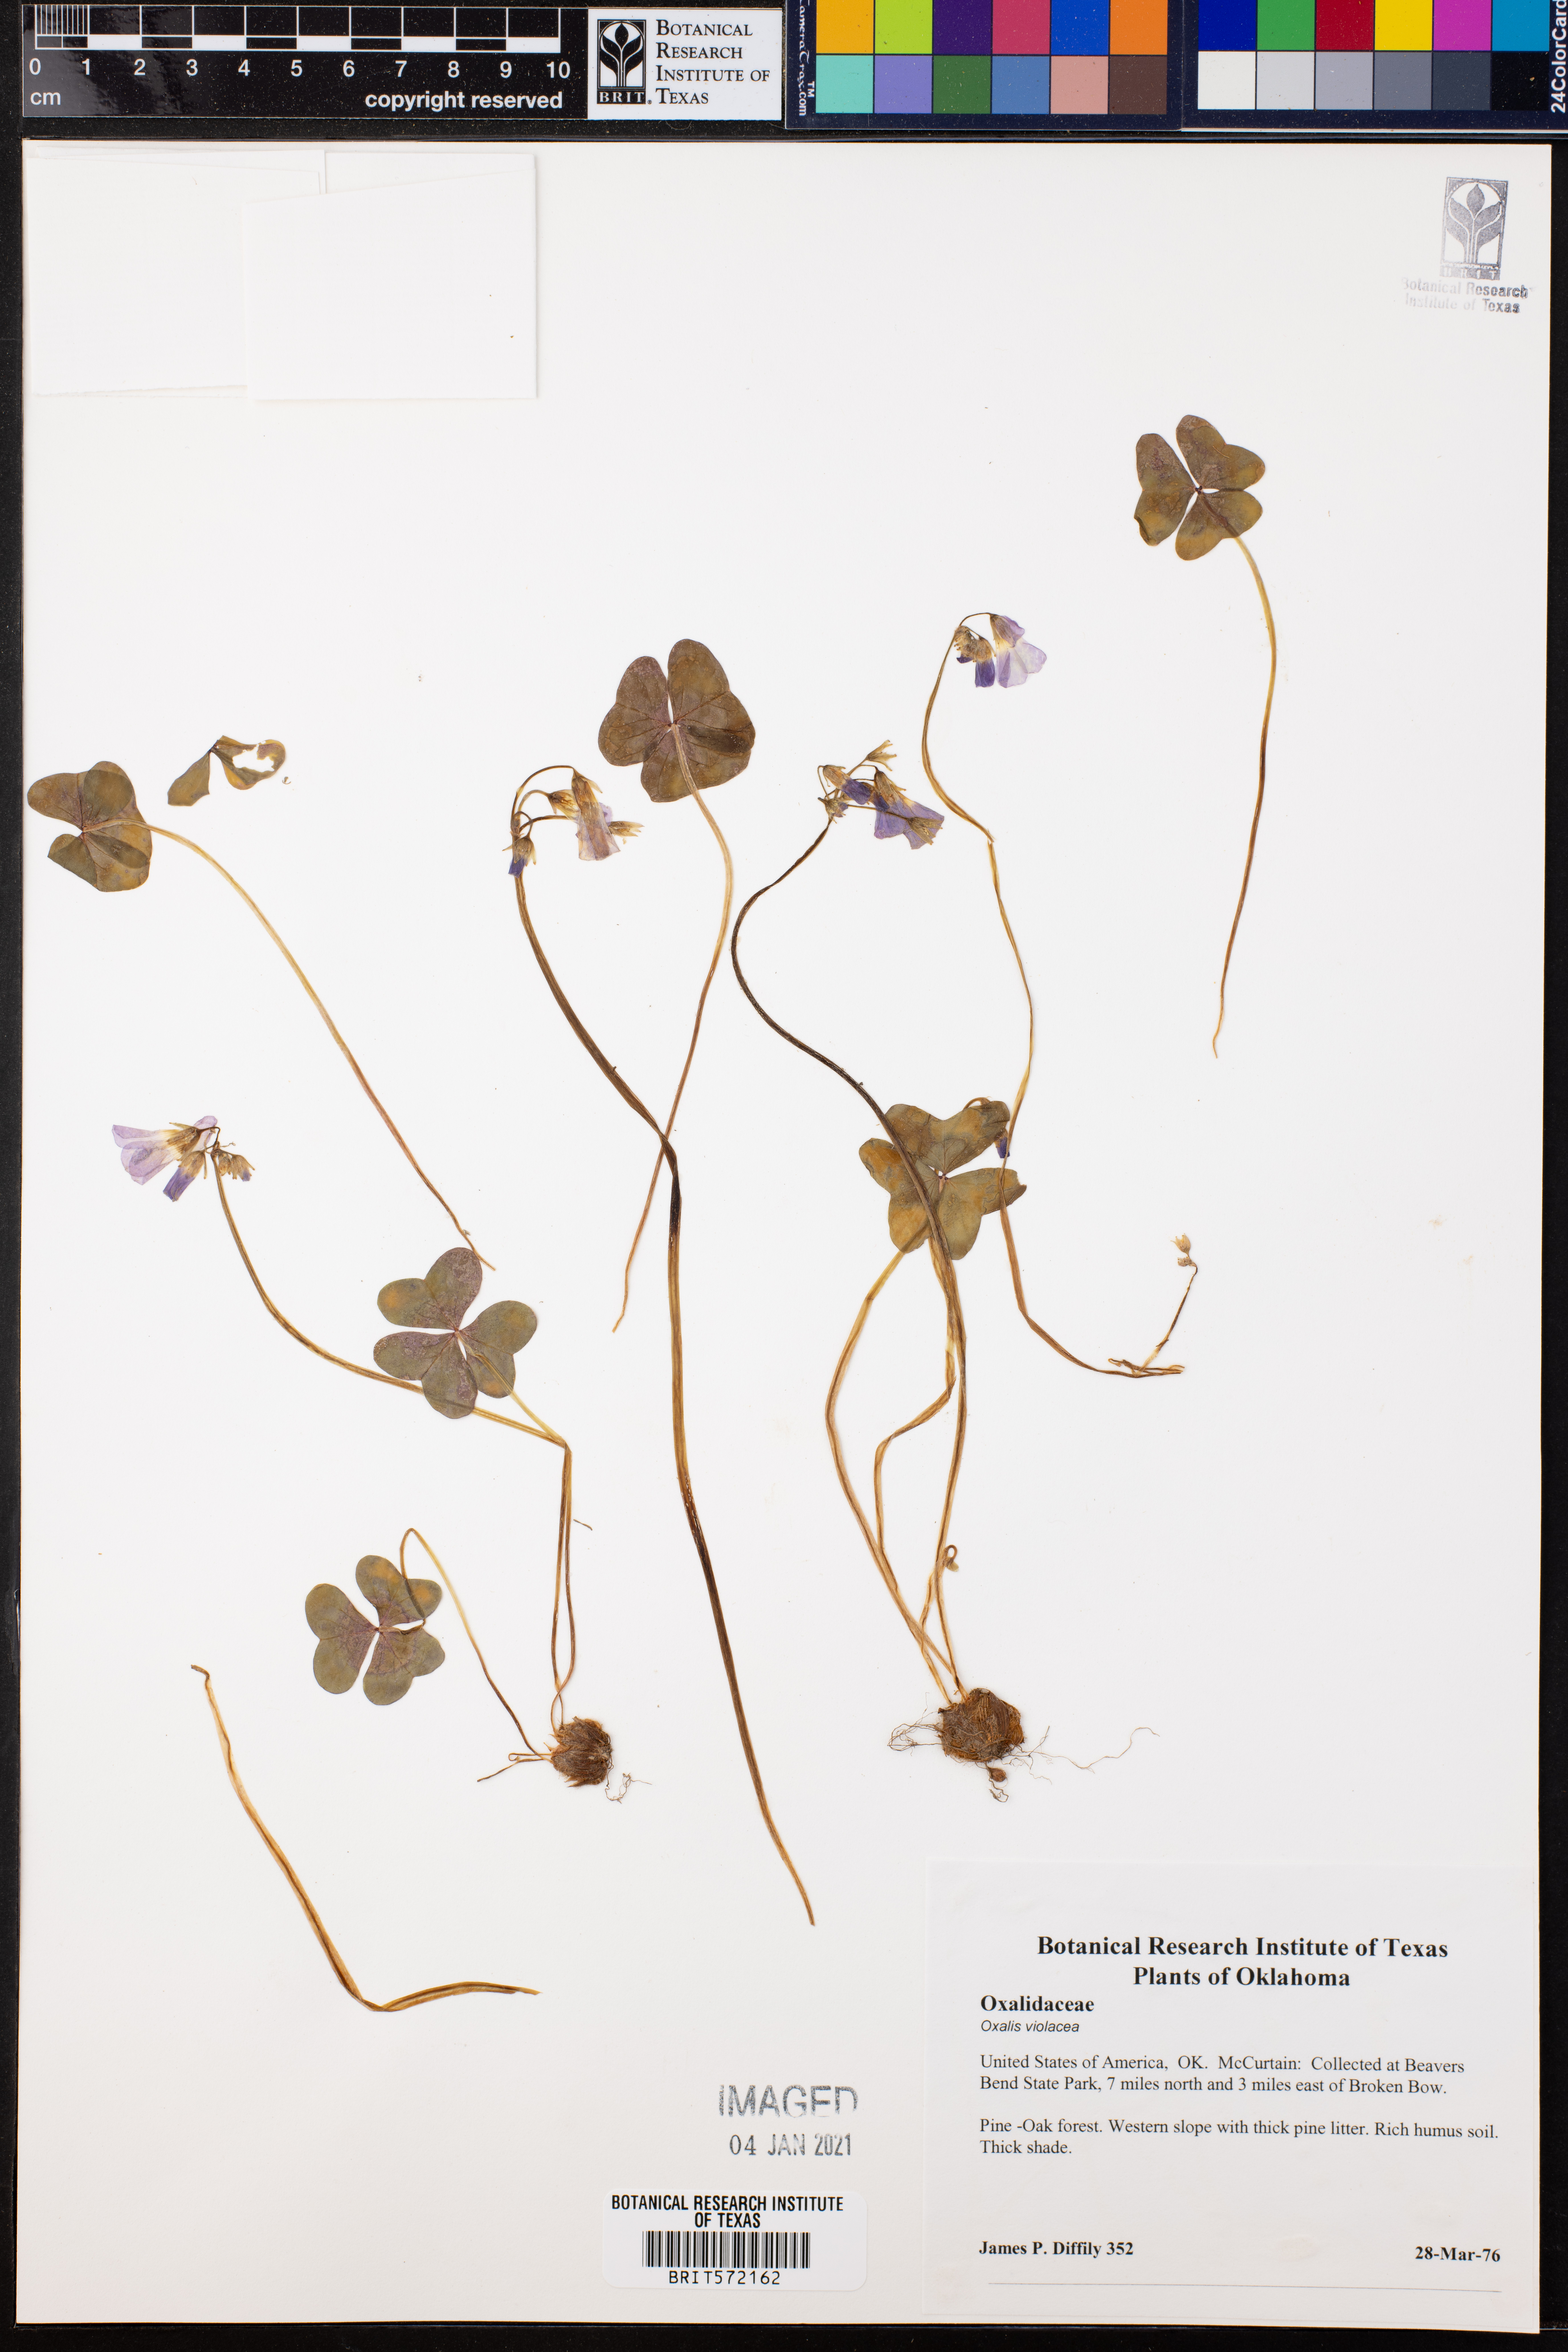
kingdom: Plantae
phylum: Tracheophyta
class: Magnoliopsida
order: Oxalidales
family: Oxalidaceae
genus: Oxalis
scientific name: Oxalis violacea
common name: Violet wood-sorrel
